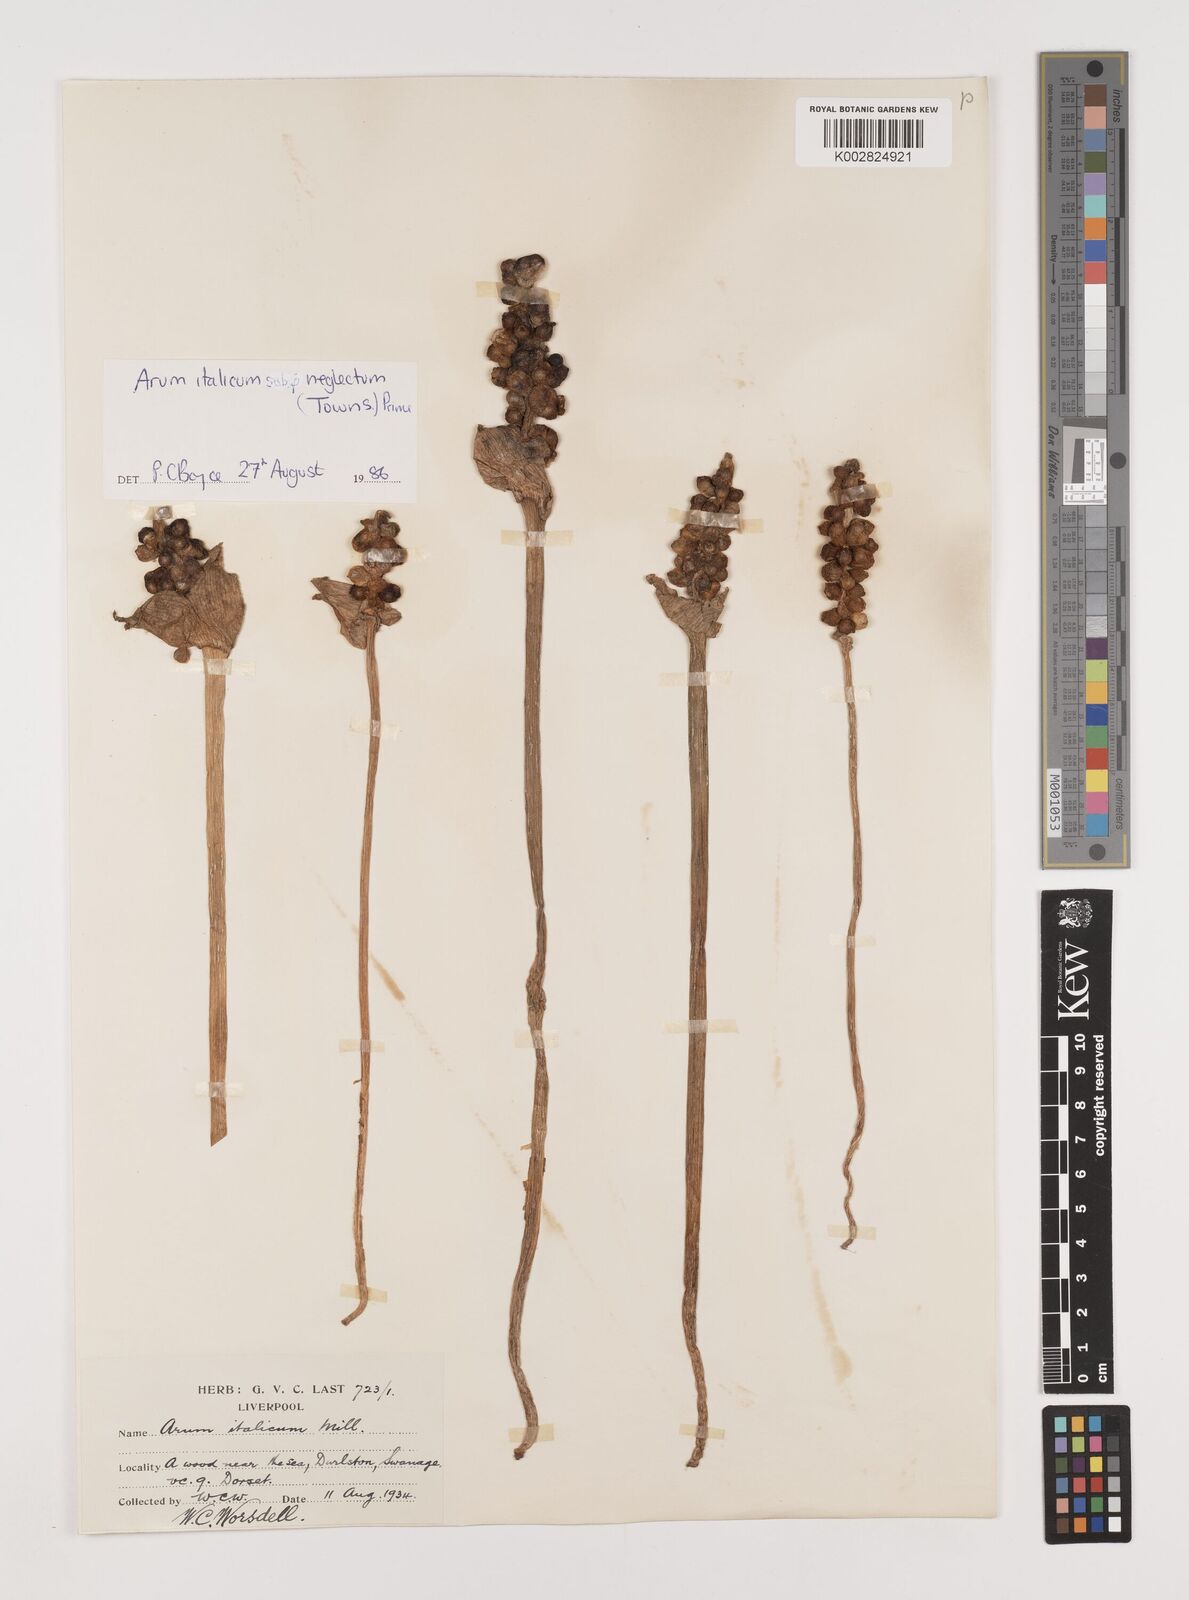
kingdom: Plantae
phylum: Tracheophyta
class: Liliopsida
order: Alismatales
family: Araceae
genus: Arum
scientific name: Arum italicum
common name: Italian lords-and-ladies
